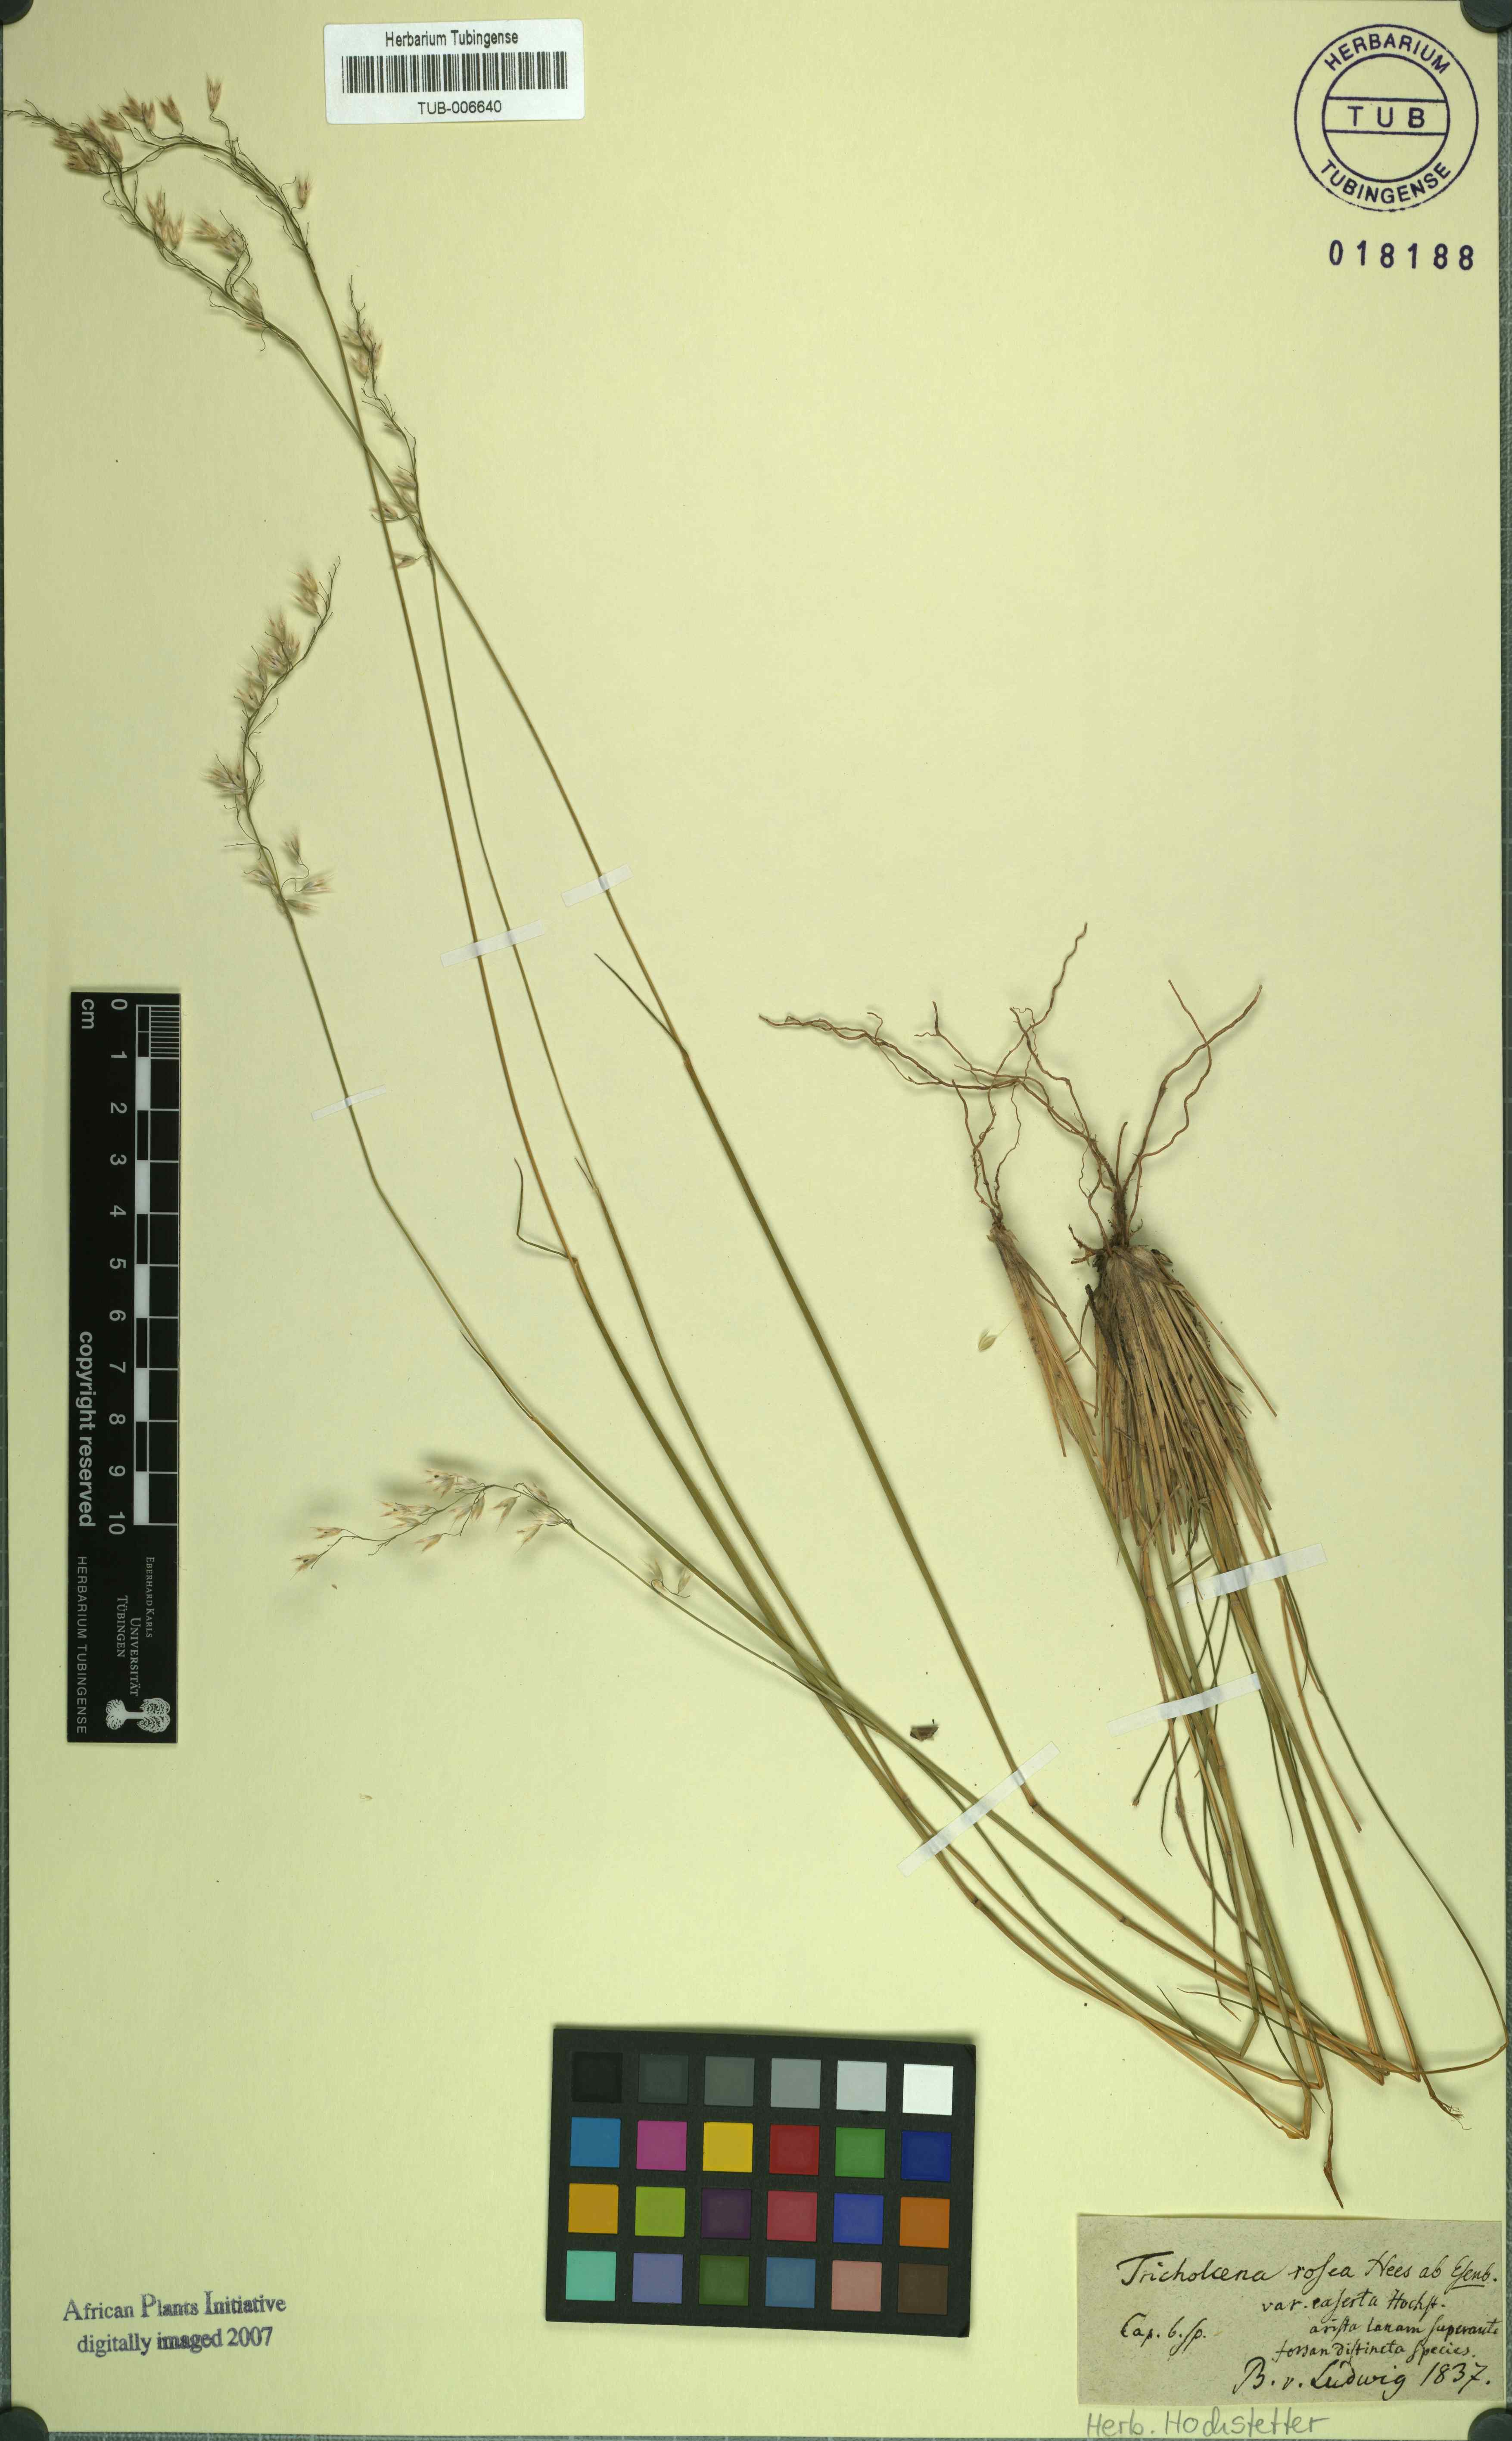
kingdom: Plantae
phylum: Tracheophyta
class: Liliopsida
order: Poales
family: Poaceae
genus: Tricholaena
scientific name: Tricholaena teneriffae
